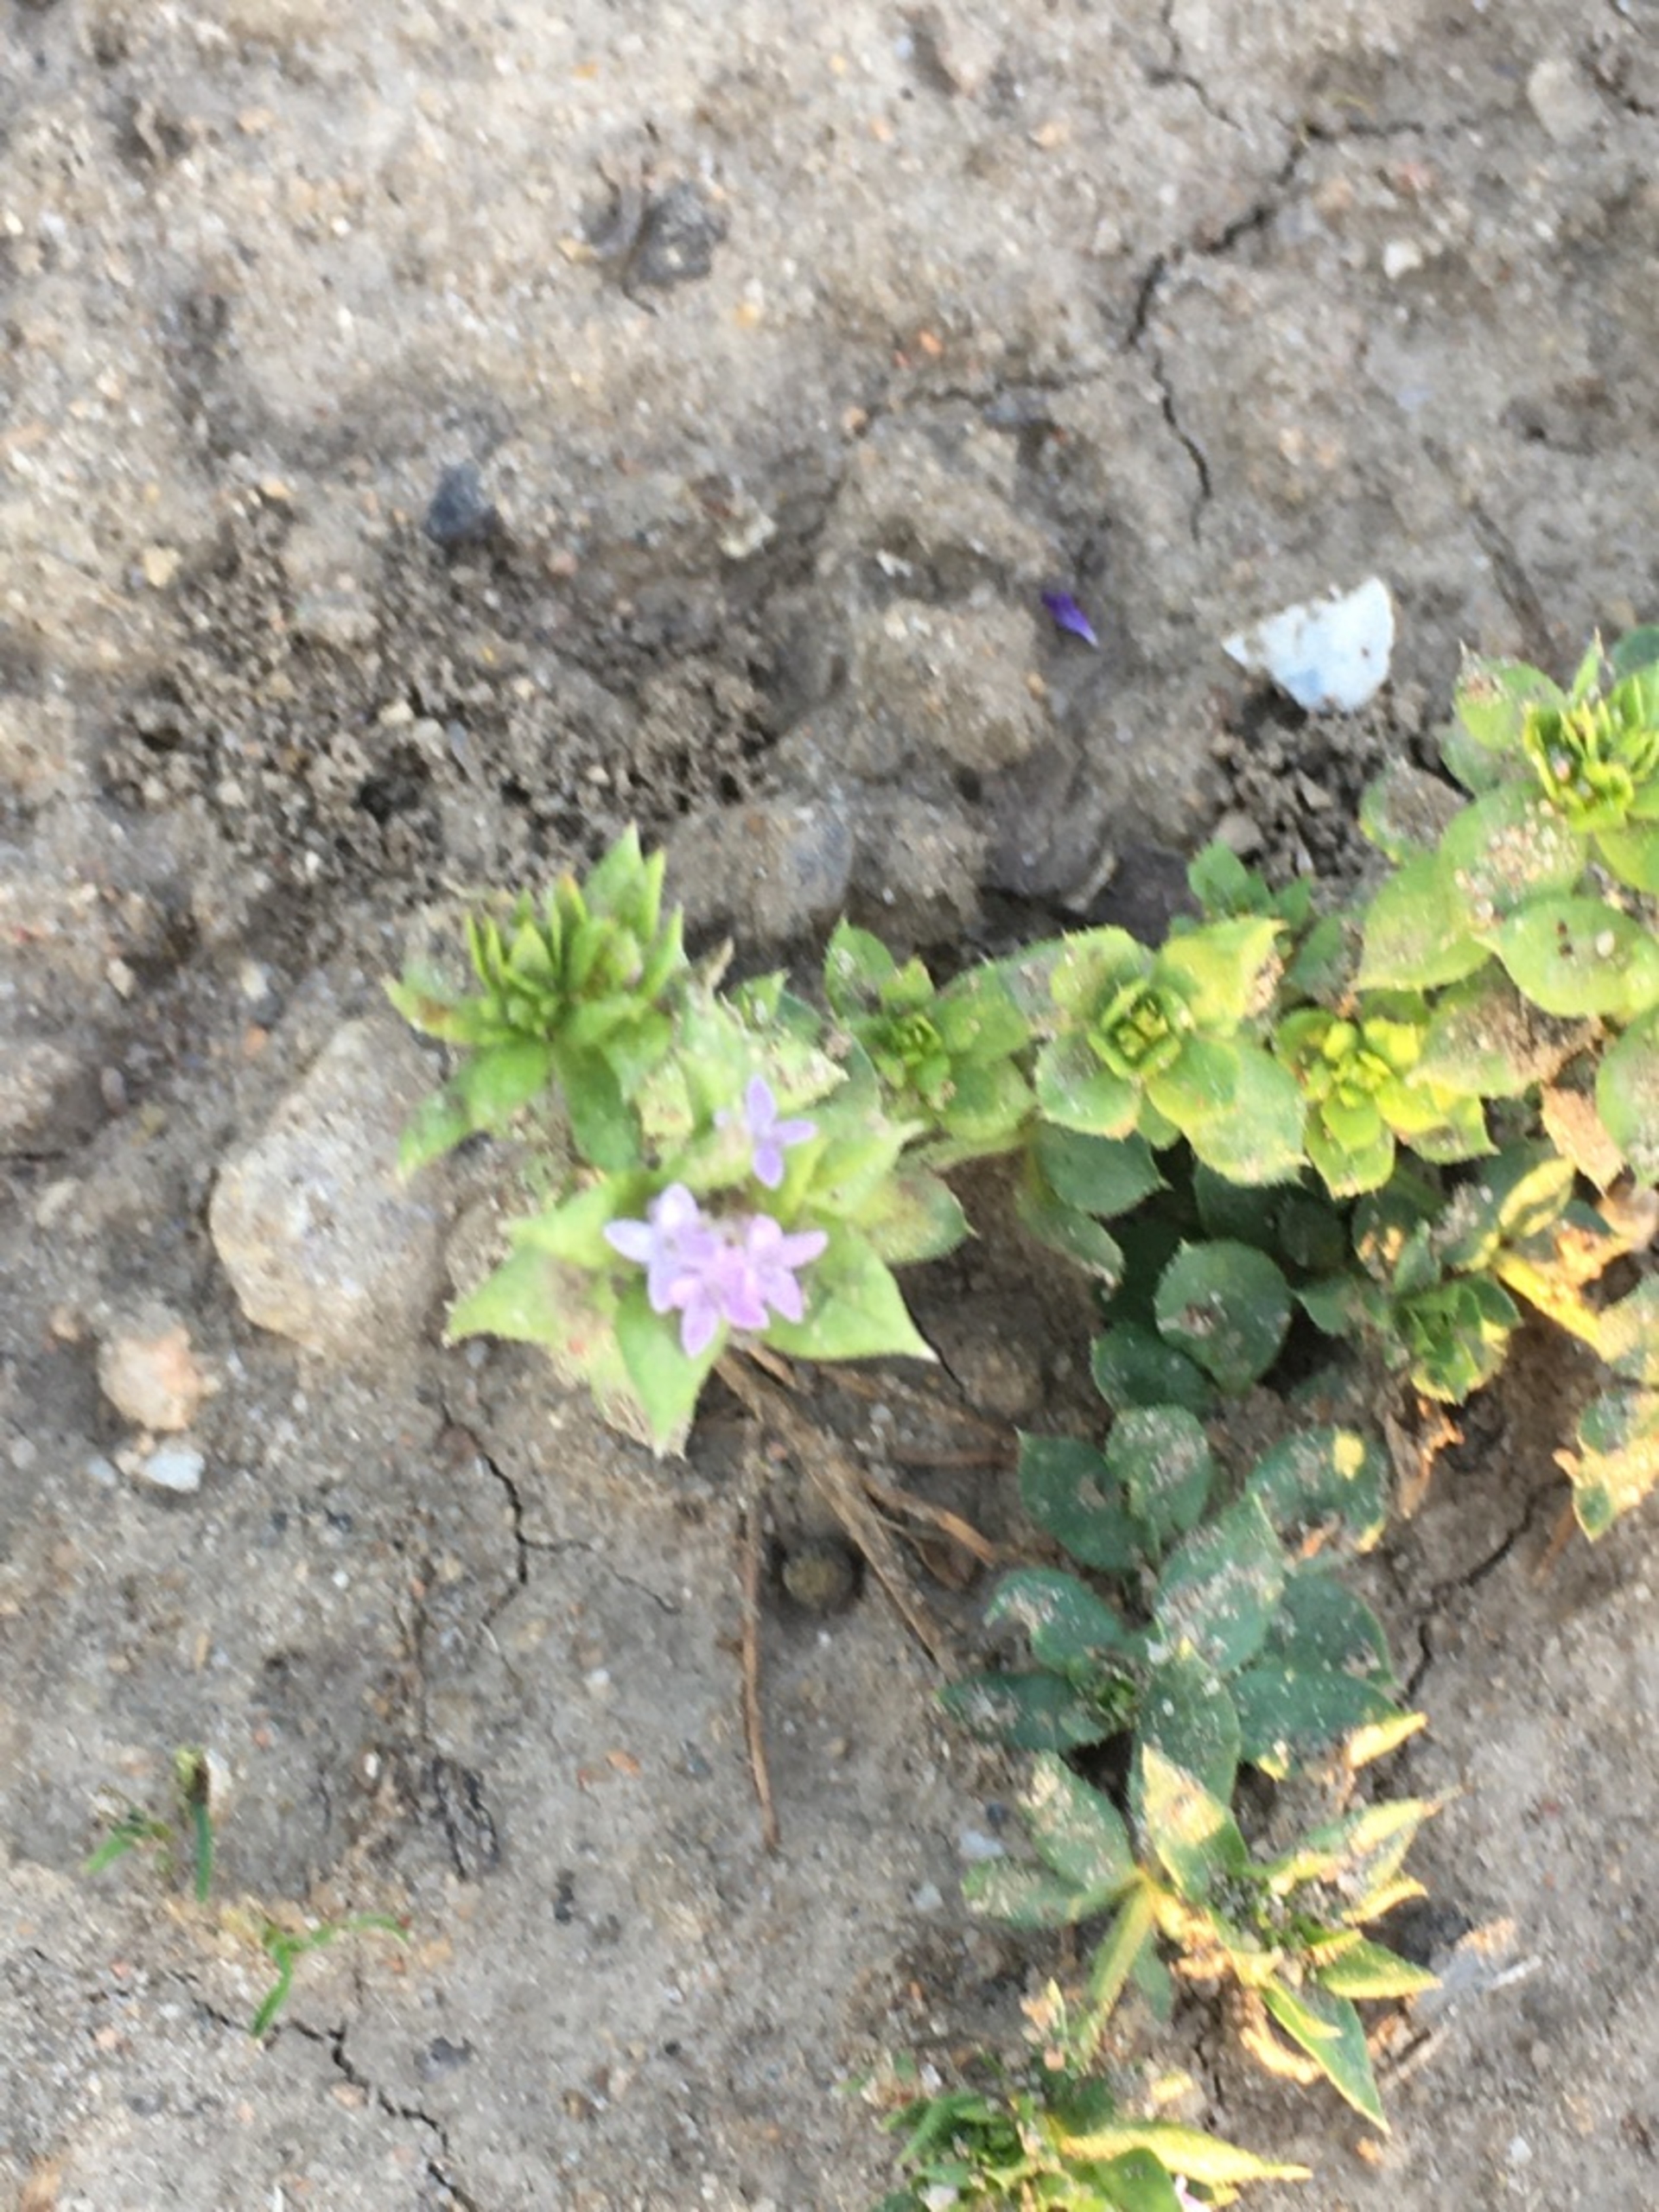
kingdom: Plantae
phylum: Tracheophyta
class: Magnoliopsida
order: Gentianales
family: Rubiaceae
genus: Sherardia
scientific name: Sherardia arvensis
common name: Blåstjerne
